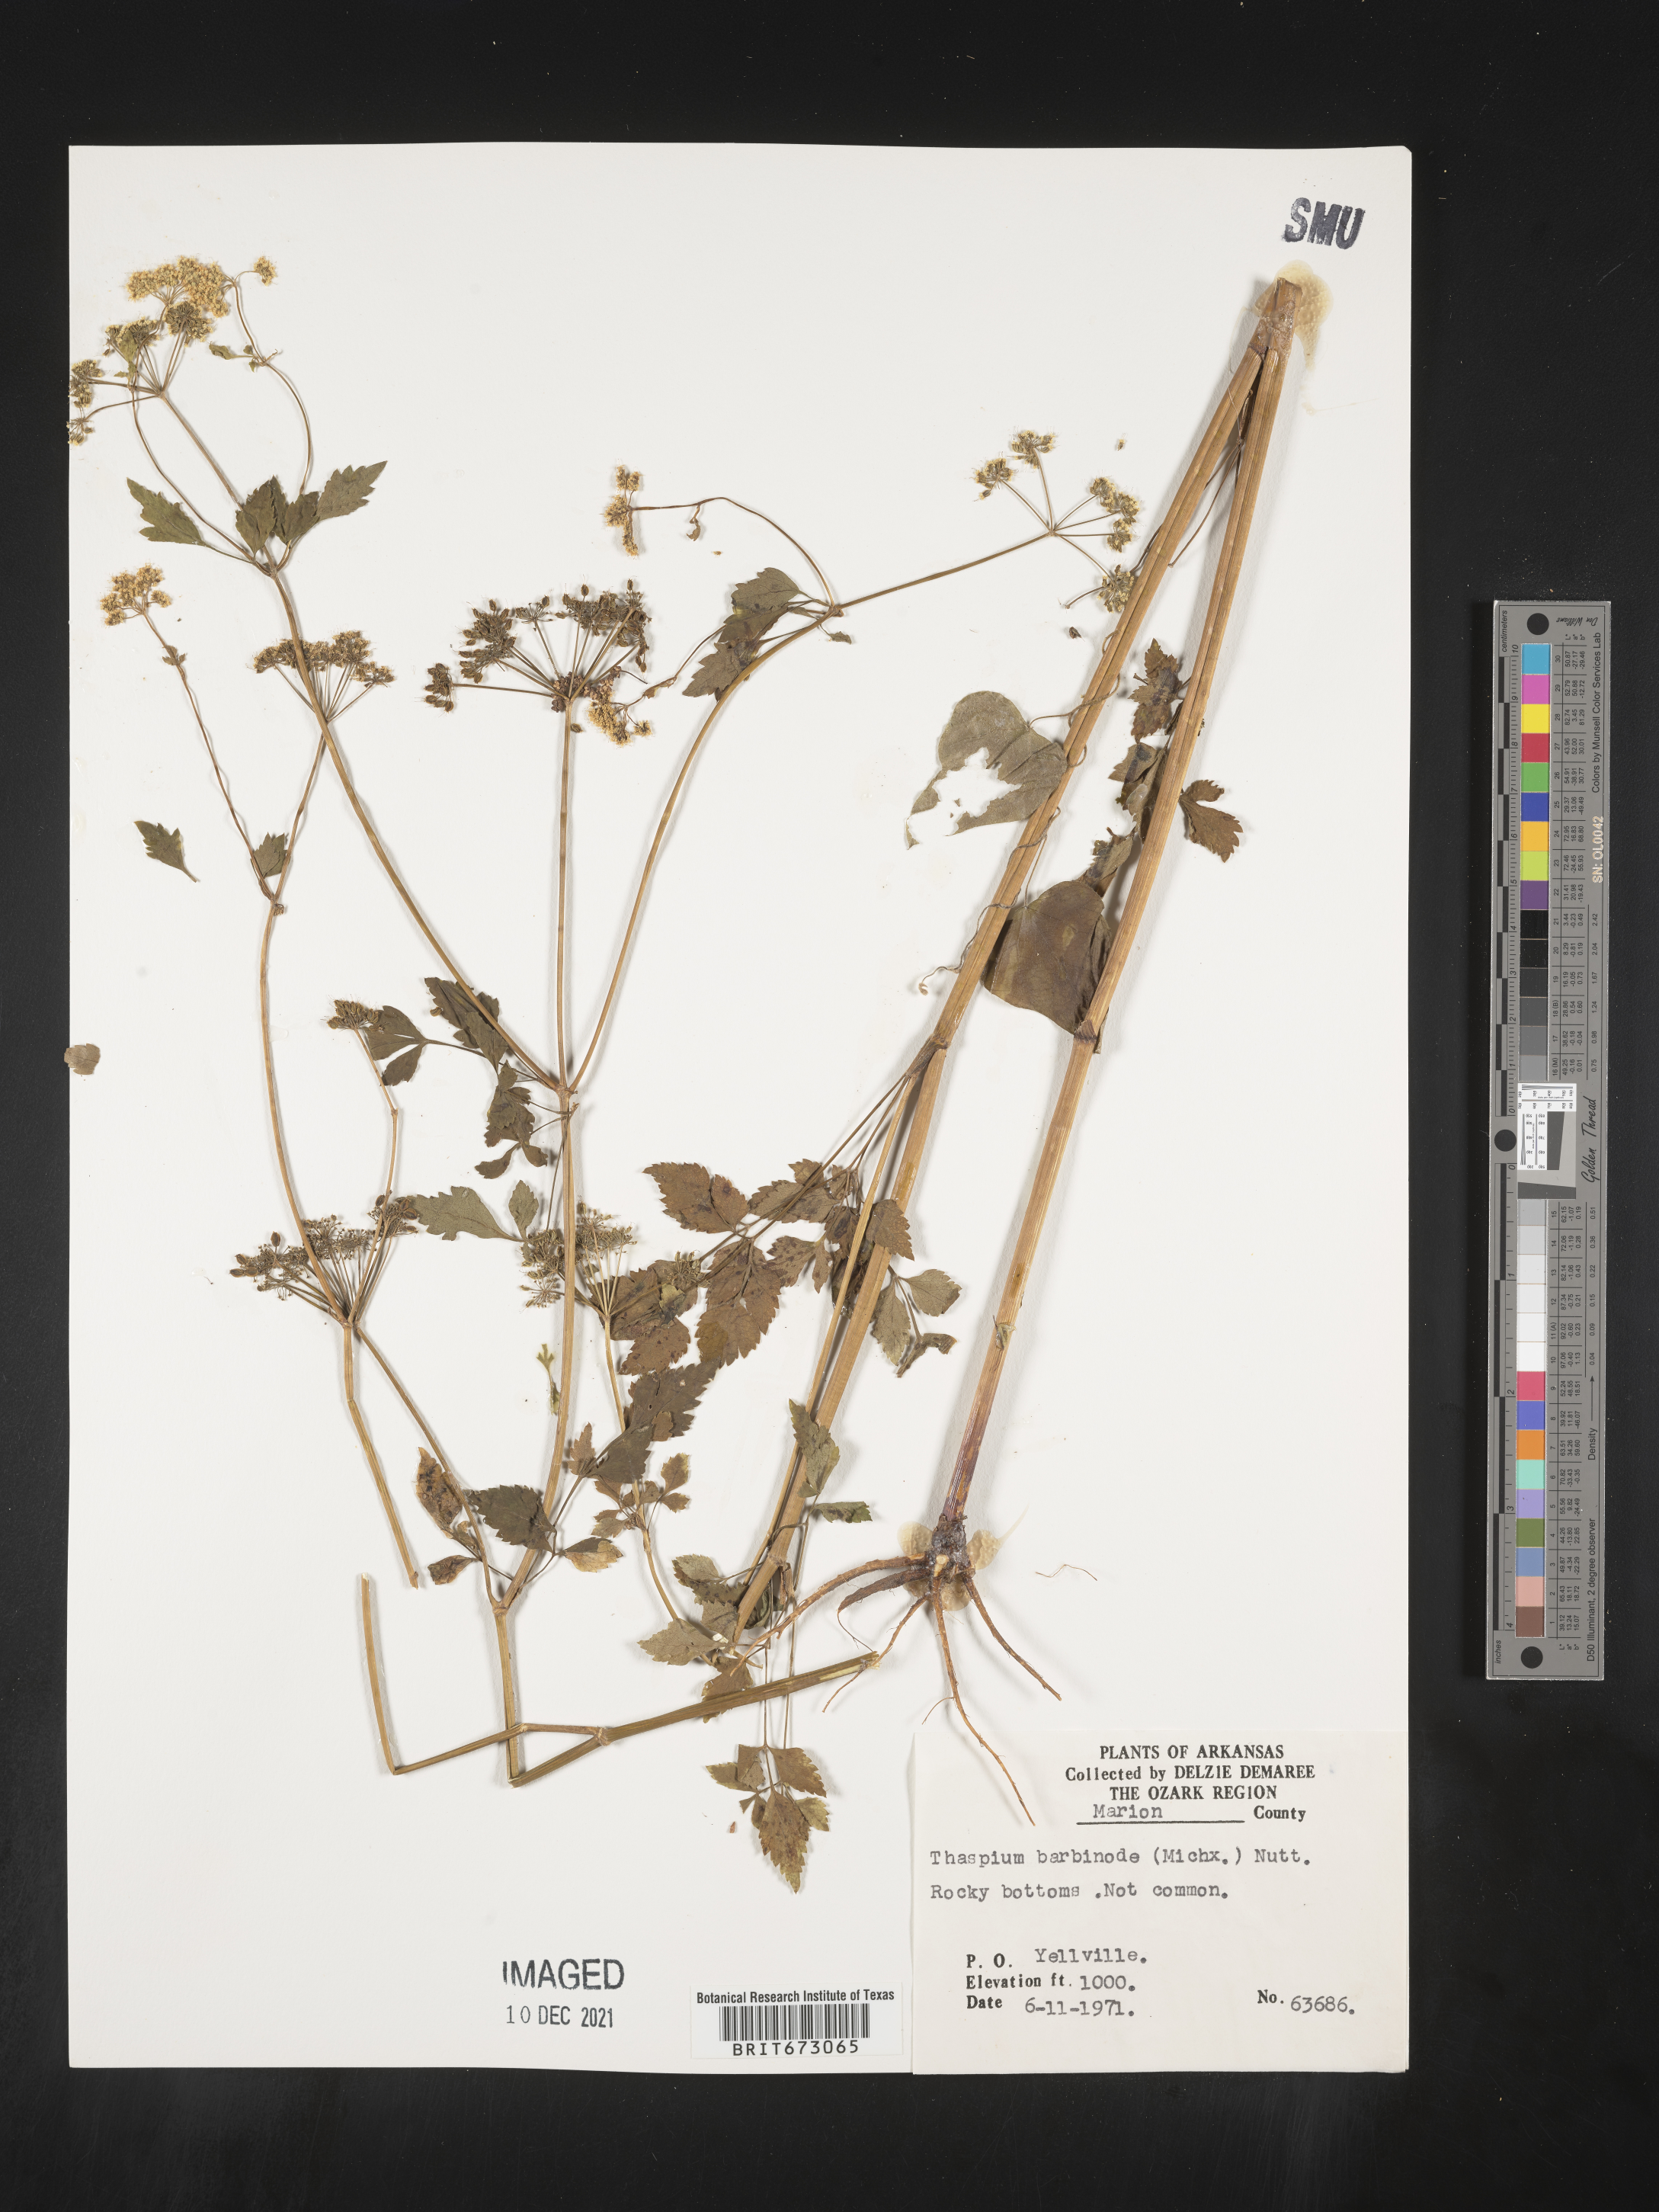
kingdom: Plantae
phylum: Tracheophyta
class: Magnoliopsida
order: Apiales
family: Apiaceae
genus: Thaspium
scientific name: Thaspium barbinode
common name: Bearded meadow-parsnip
